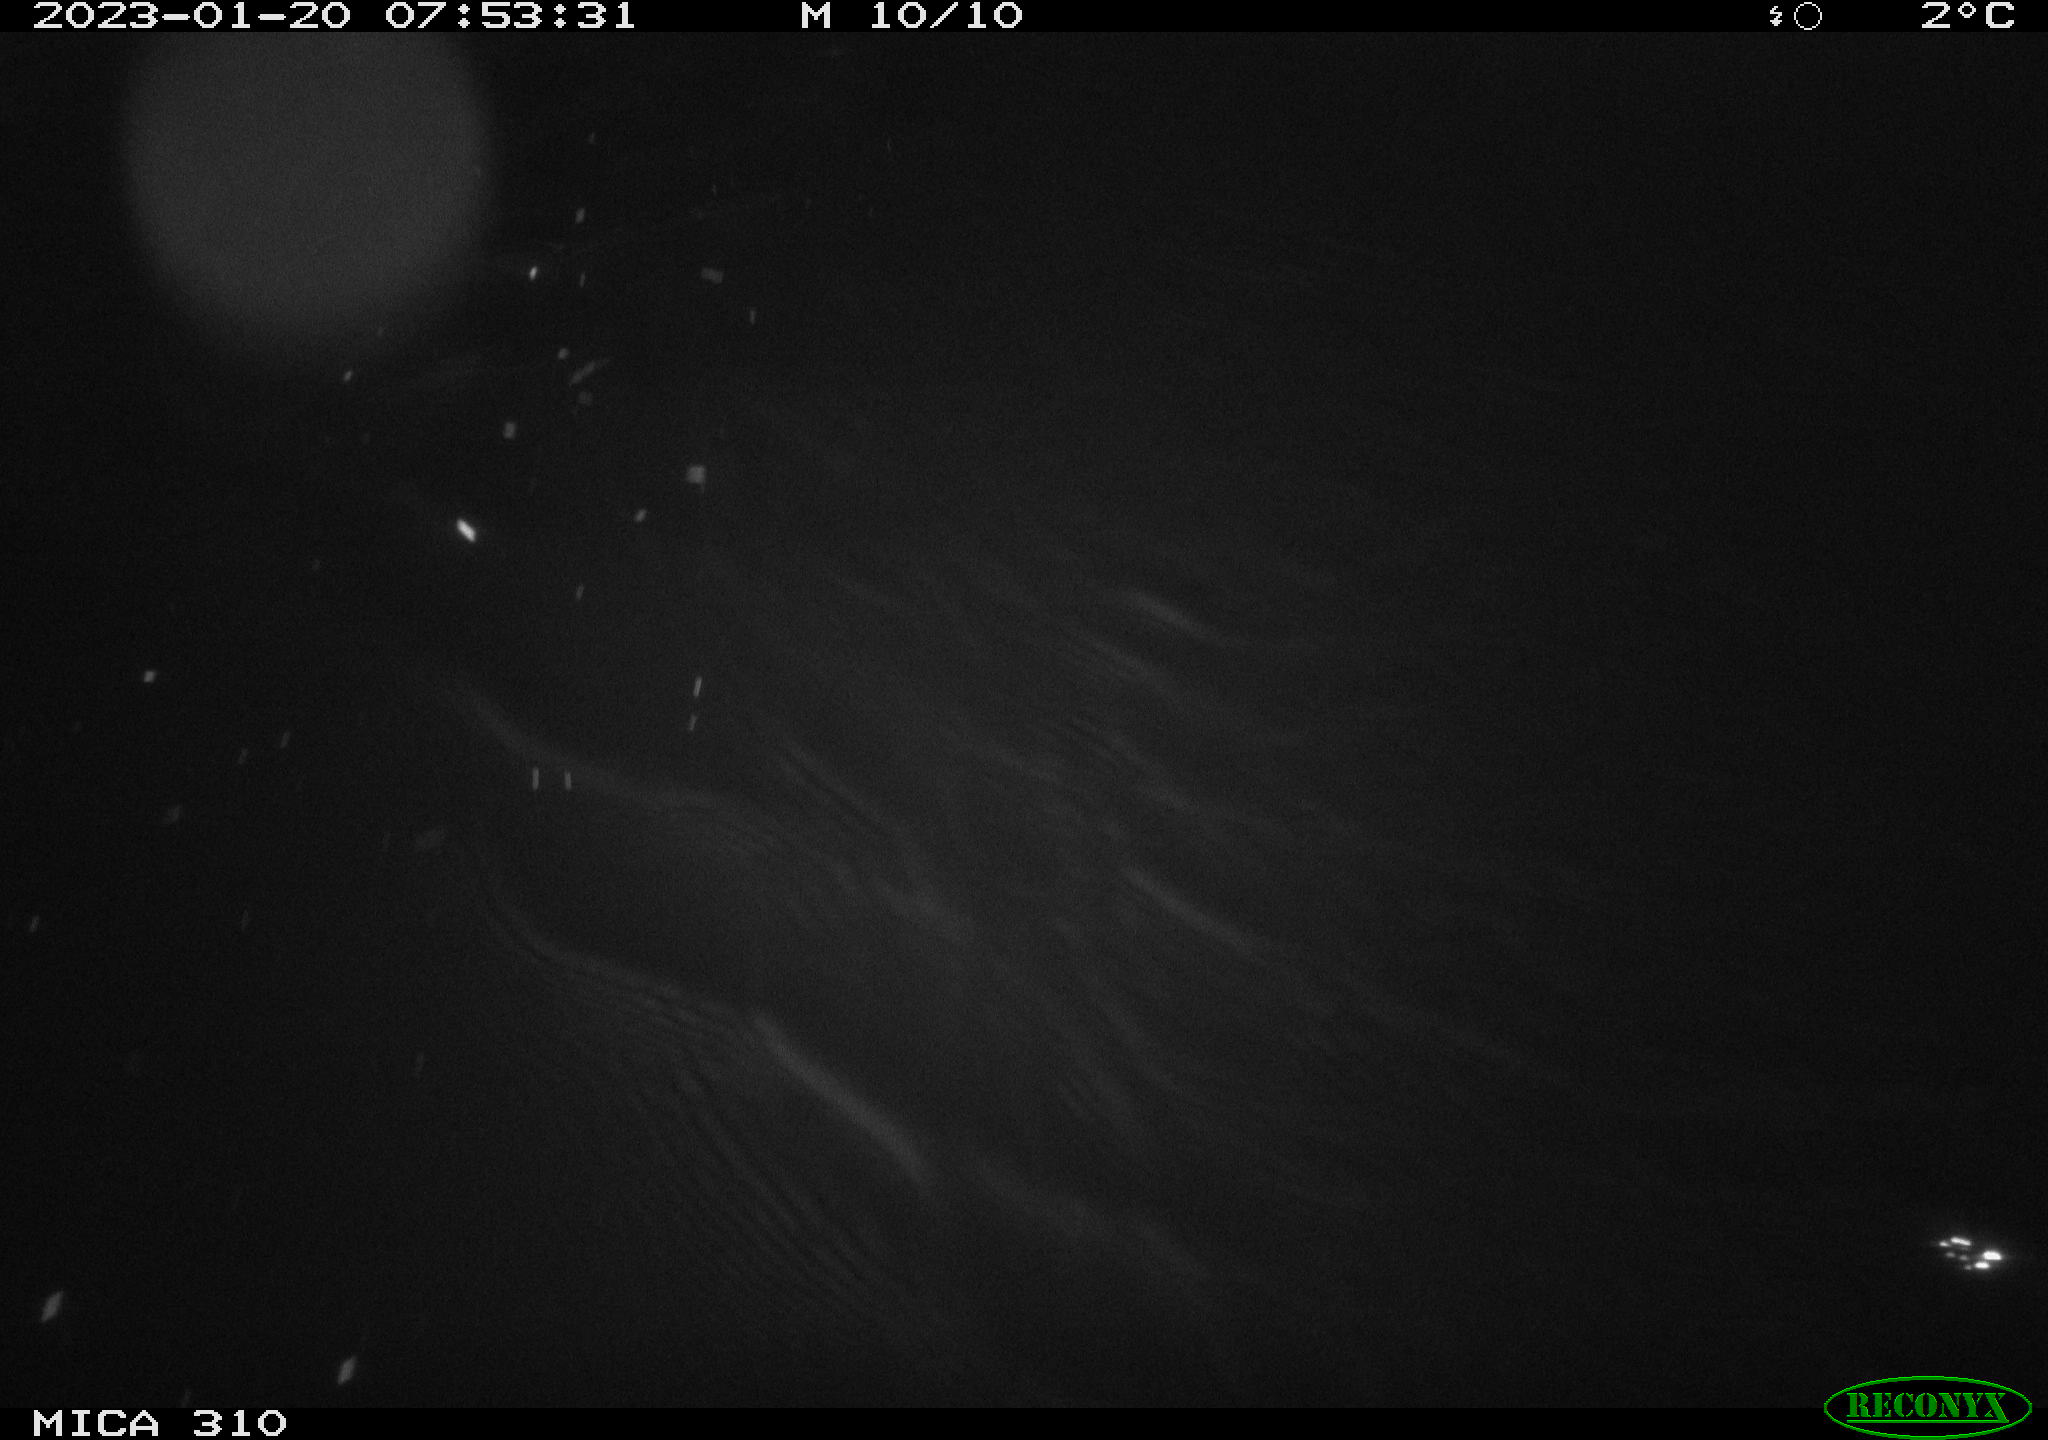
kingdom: Animalia
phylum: Chordata
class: Mammalia
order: Rodentia
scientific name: Rodentia
